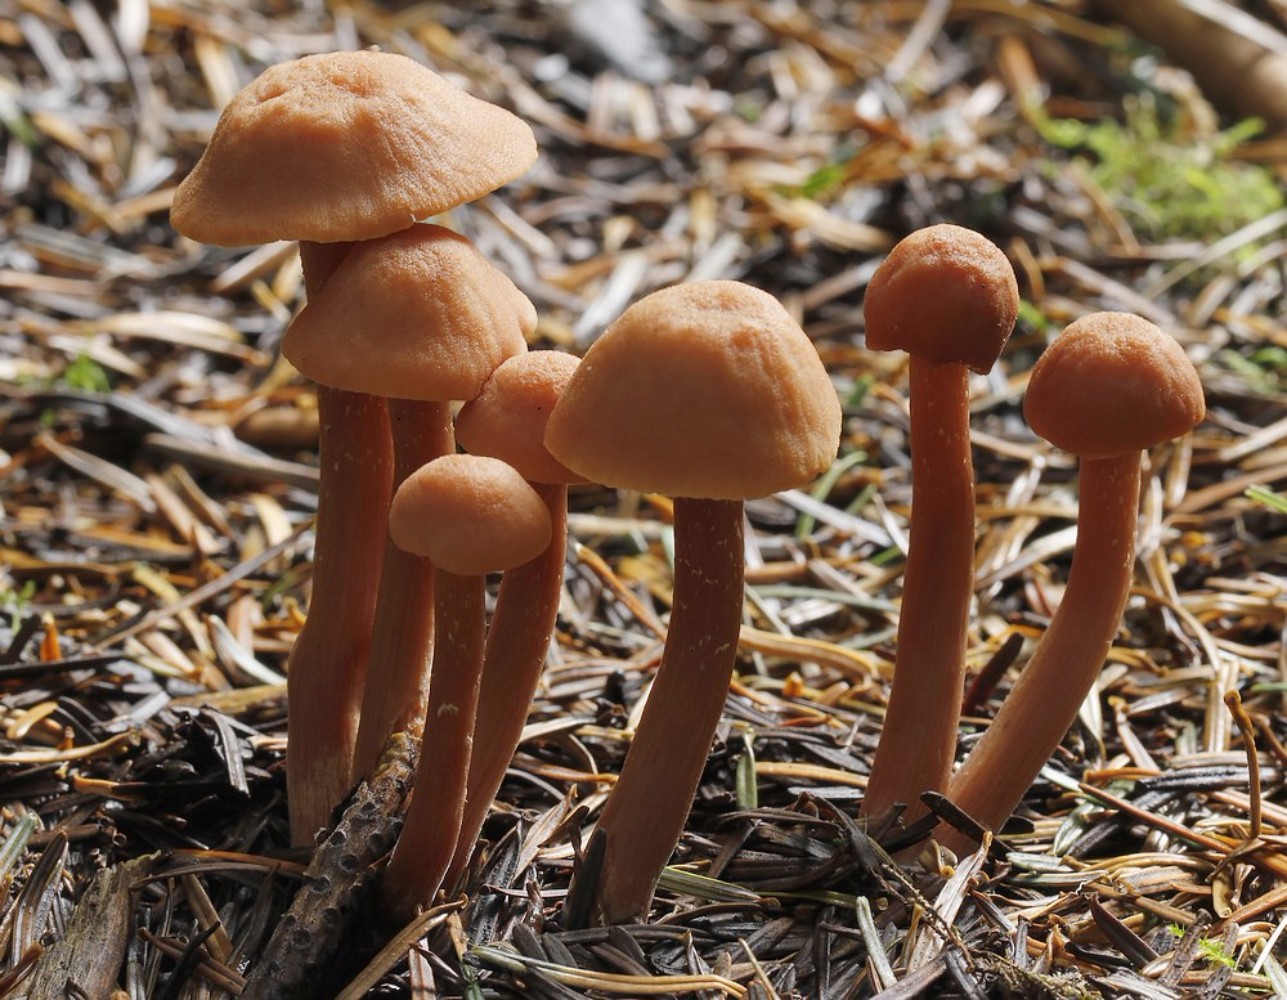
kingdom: Fungi
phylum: Basidiomycota
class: Agaricomycetes
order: Agaricales
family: Hydnangiaceae
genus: Laccaria
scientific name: Laccaria laccata
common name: rød ametysthat
